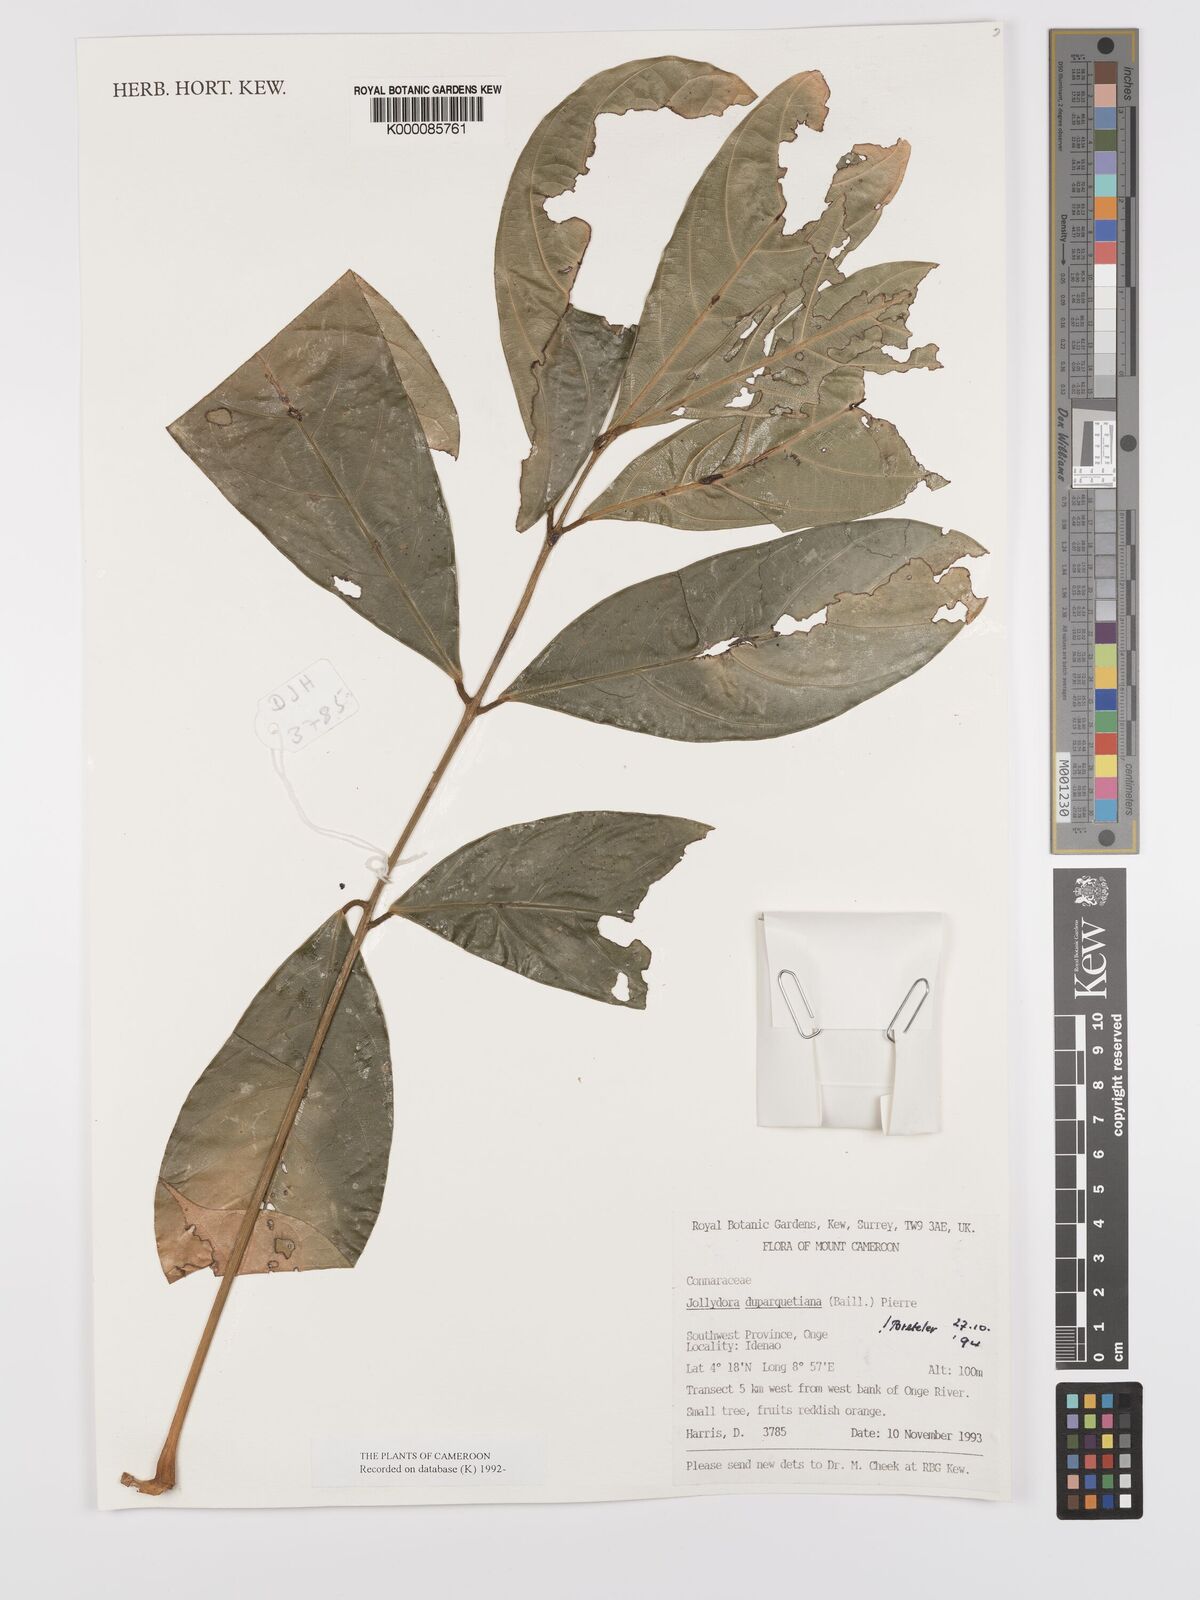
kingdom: Plantae
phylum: Tracheophyta
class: Magnoliopsida
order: Oxalidales
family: Connaraceae
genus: Jollydora
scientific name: Jollydora duparquetiana
